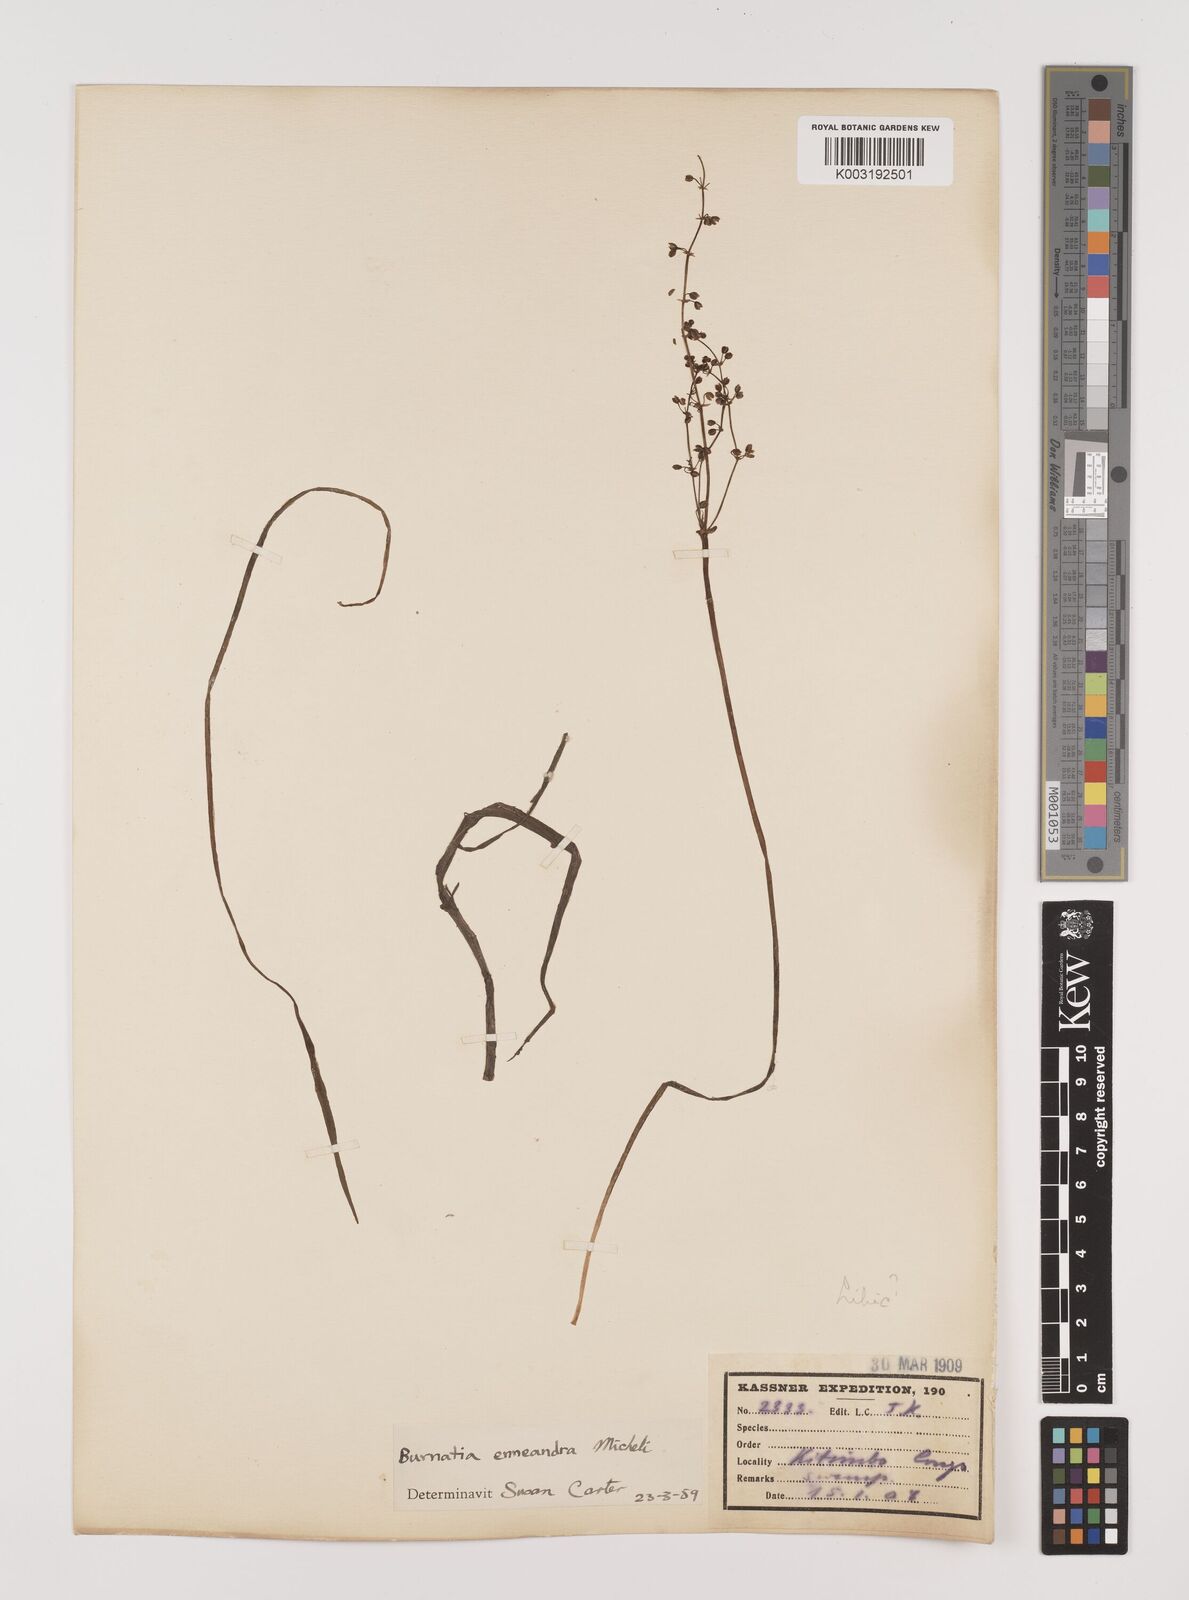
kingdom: Plantae
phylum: Tracheophyta
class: Liliopsida
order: Alismatales
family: Alismataceae
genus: Burnatia
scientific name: Burnatia enneandra
